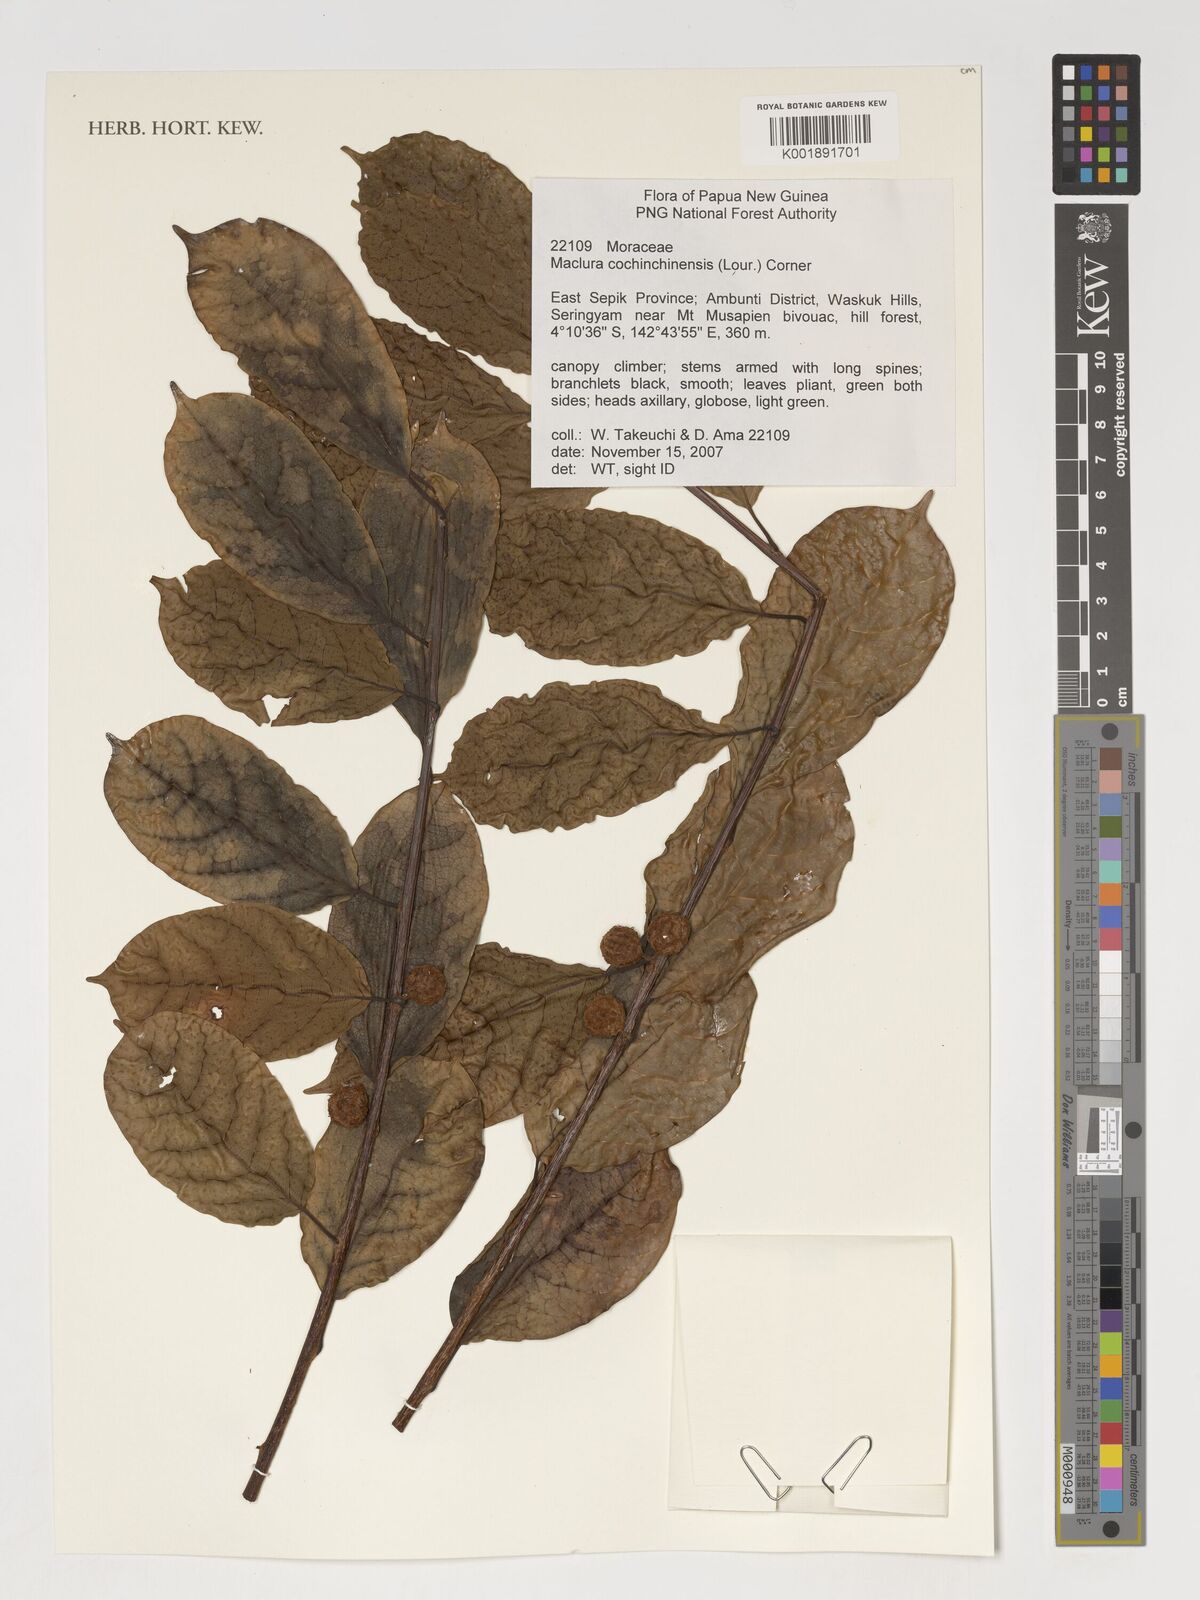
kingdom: Plantae
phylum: Tracheophyta
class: Magnoliopsida
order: Rosales
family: Moraceae
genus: Maclura
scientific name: Maclura cochinchinensis
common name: Cockspurthorn
